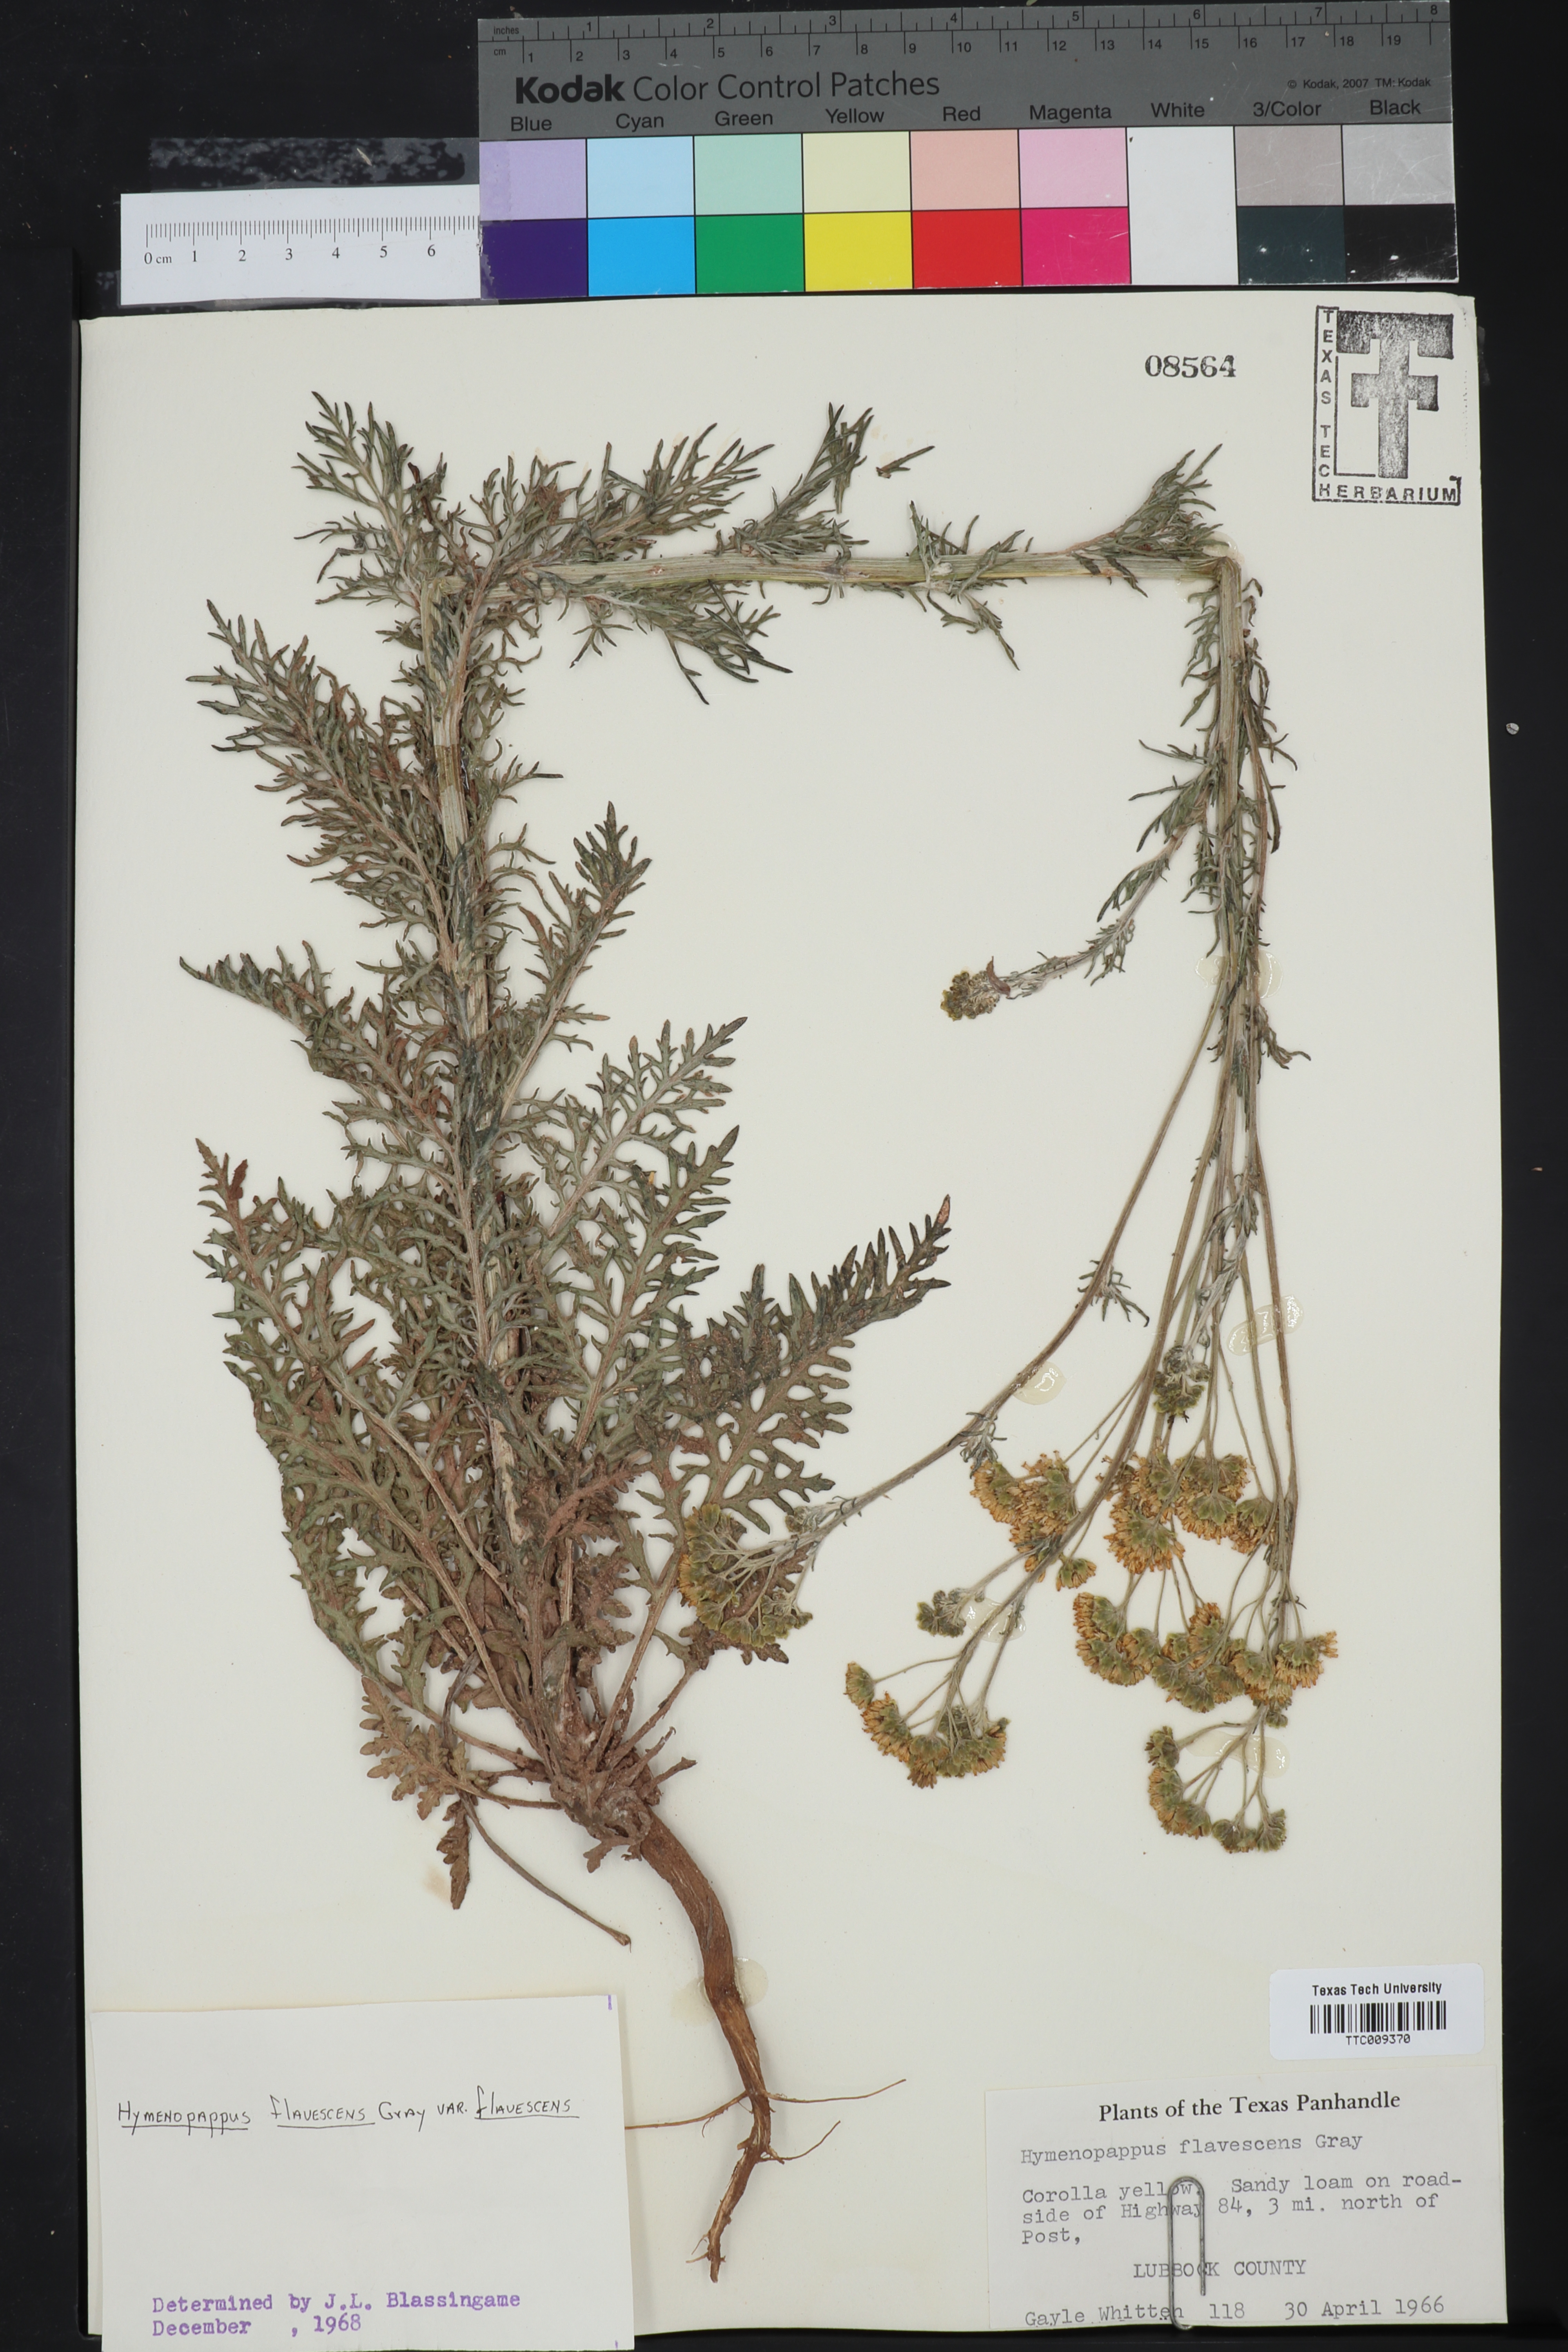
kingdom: Plantae
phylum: Tracheophyta
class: Magnoliopsida
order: Asterales
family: Asteraceae
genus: Hymenopappus
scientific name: Hymenopappus flavescens
